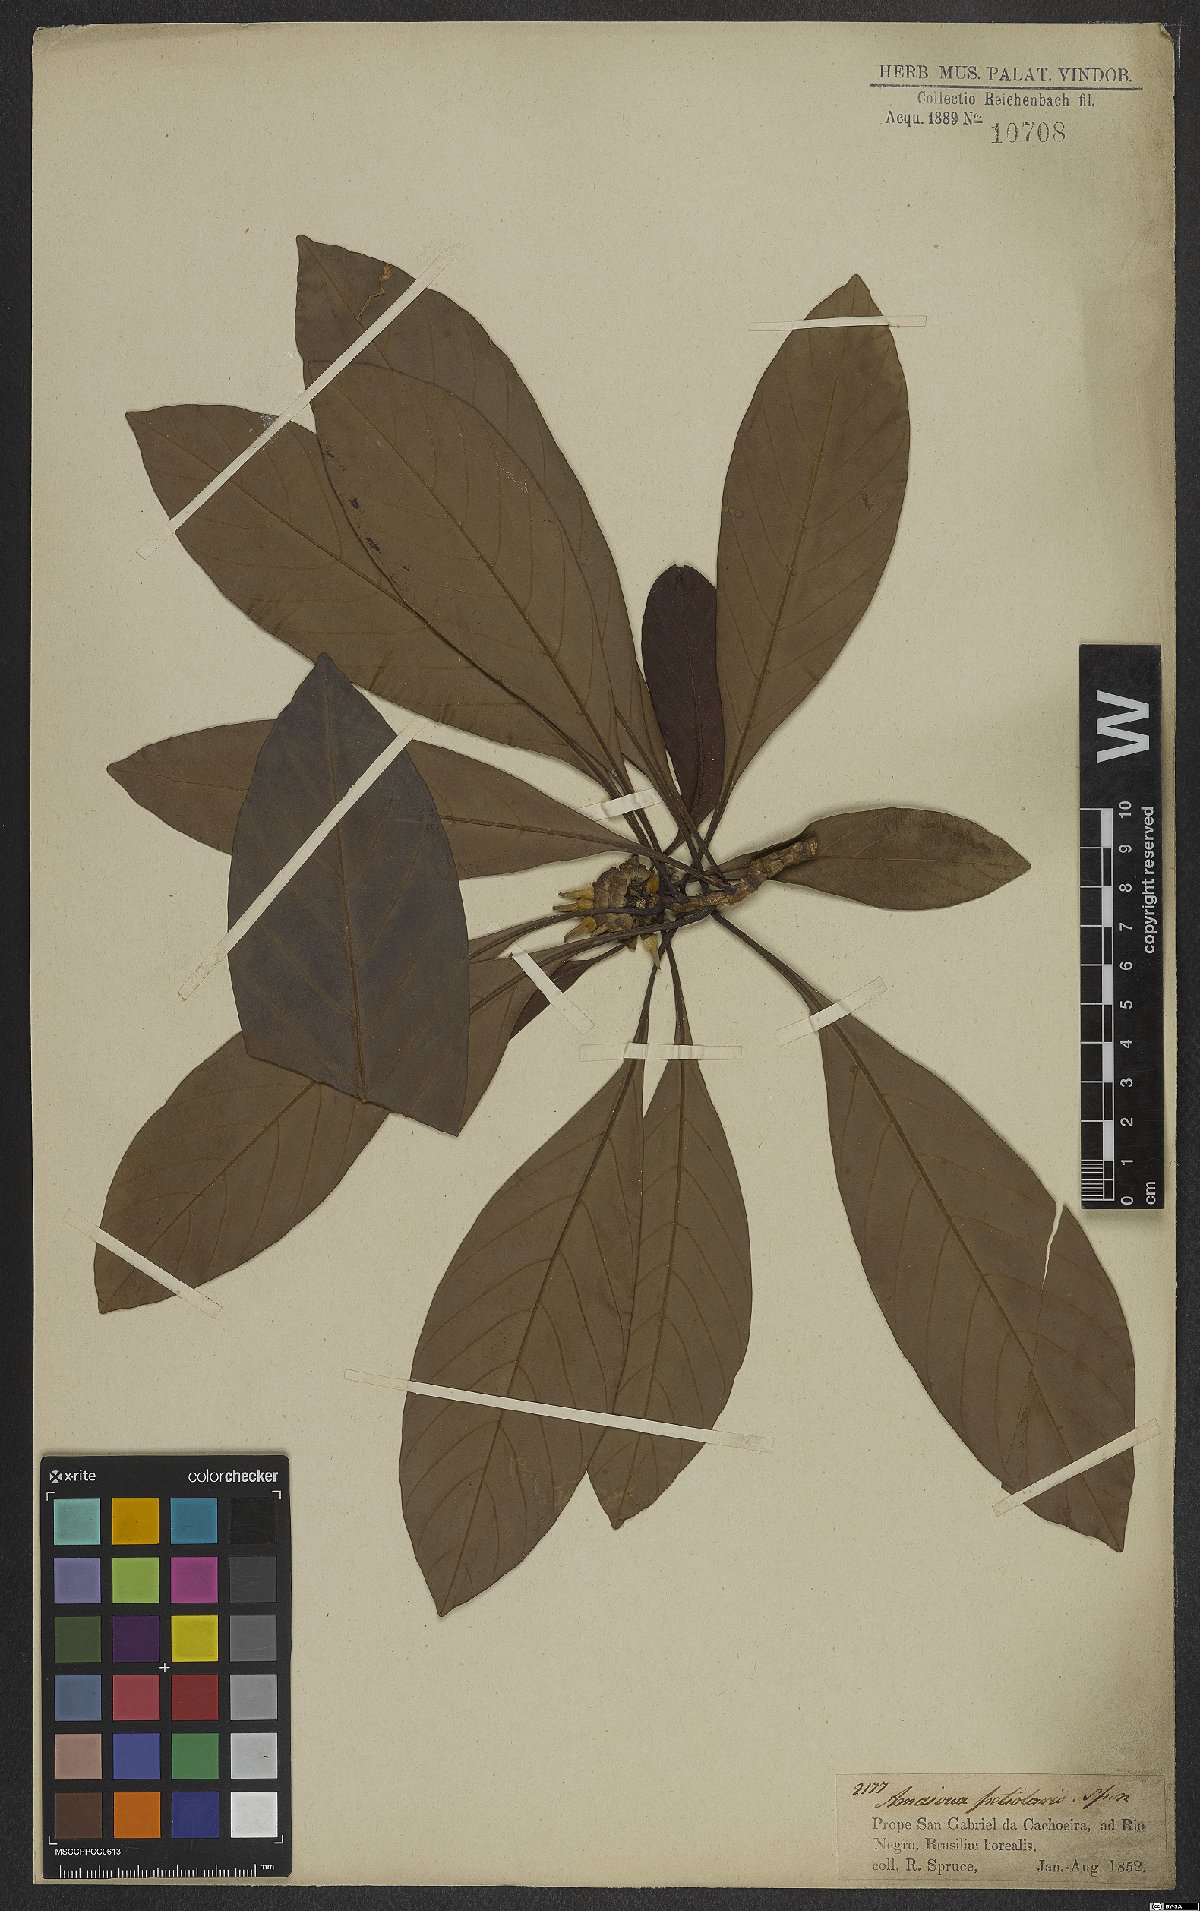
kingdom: Plantae
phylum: Tracheophyta
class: Magnoliopsida
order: Gentianales
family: Rubiaceae
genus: Duroia
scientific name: Duroia petiolaris
